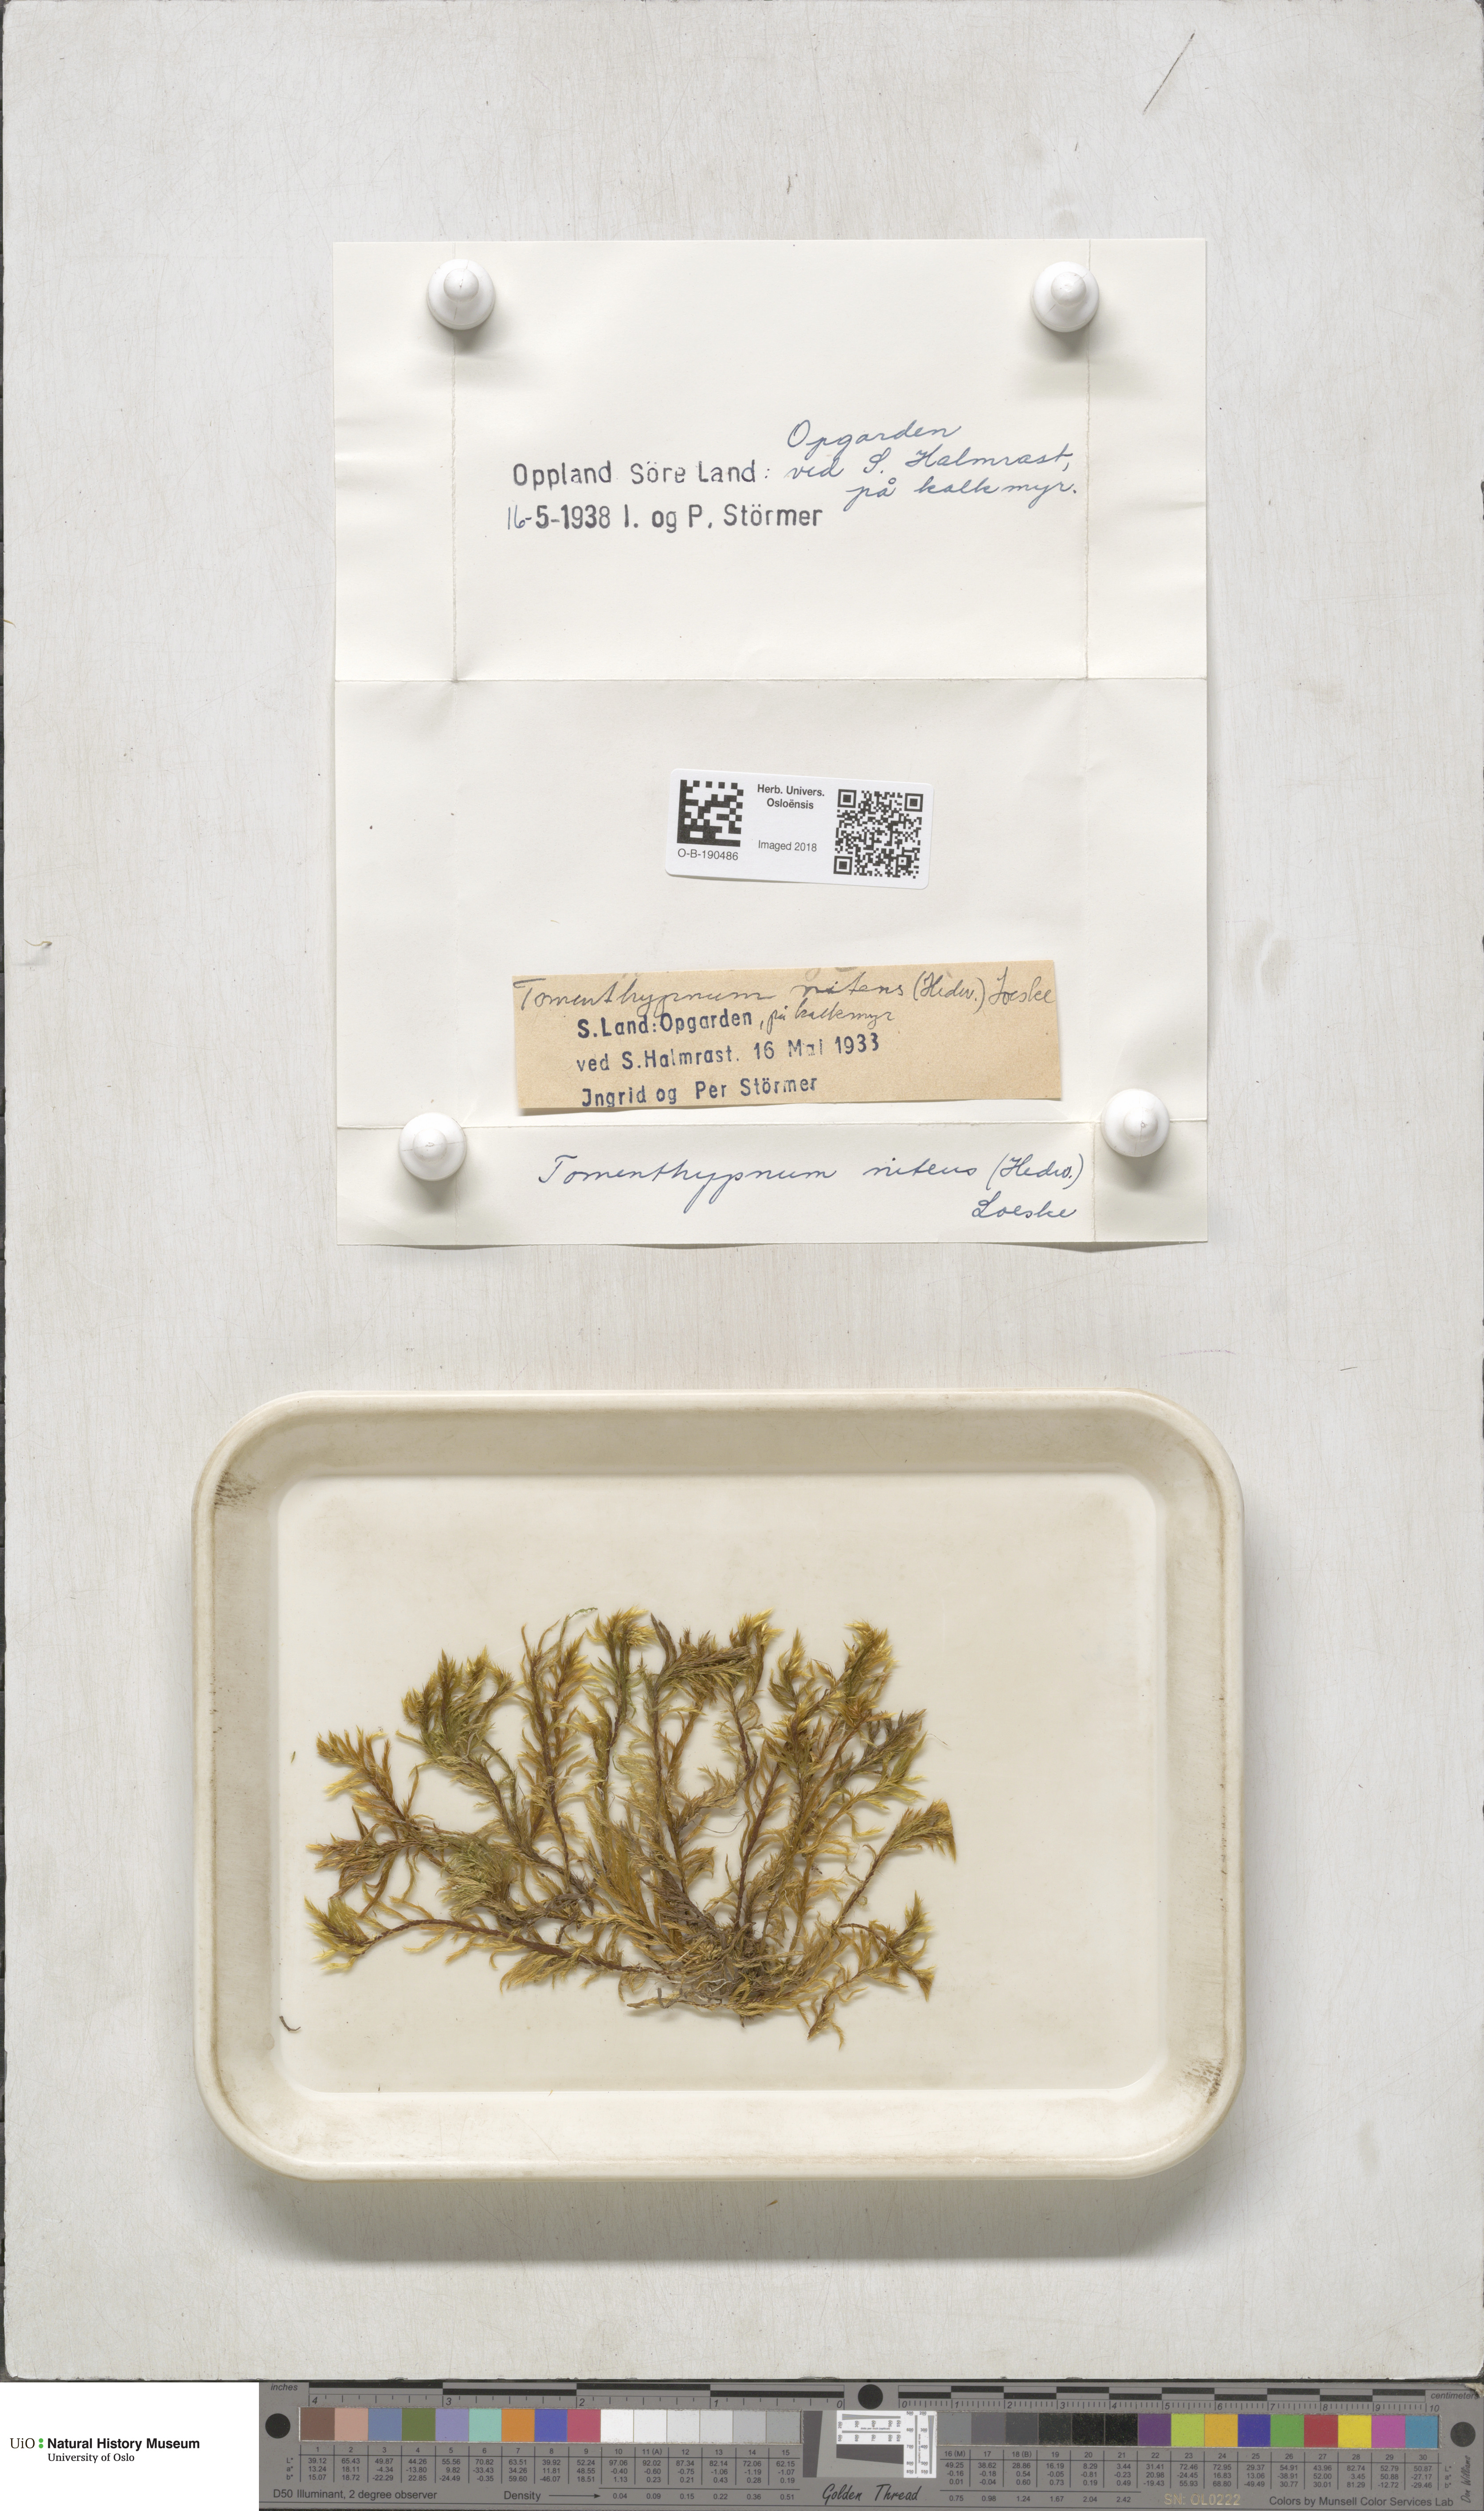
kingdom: Plantae
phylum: Bryophyta
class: Bryopsida
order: Hypnales
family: Amblystegiaceae
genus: Tomentypnum
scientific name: Tomentypnum nitens
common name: Golden fuzzy fen moss
